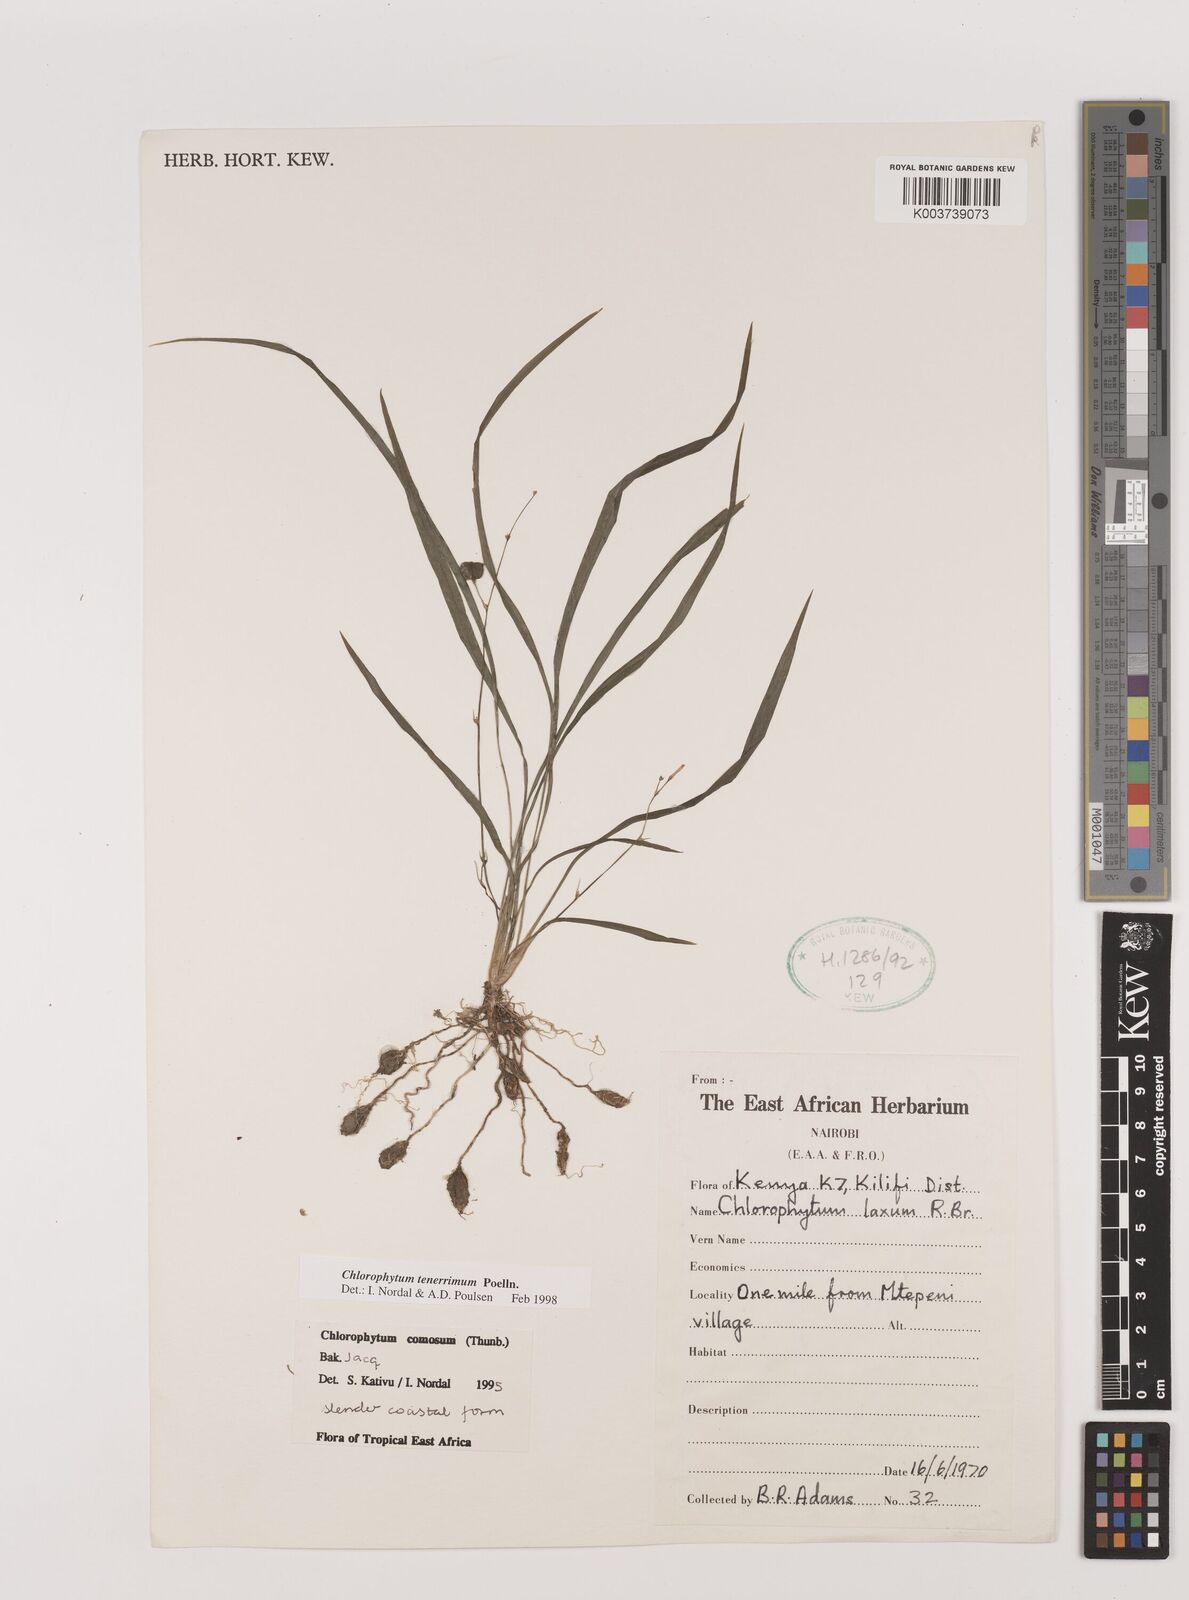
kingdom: Plantae
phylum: Tracheophyta
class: Liliopsida
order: Asparagales
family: Asparagaceae
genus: Chlorophytum
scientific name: Chlorophytum tenerrimum
